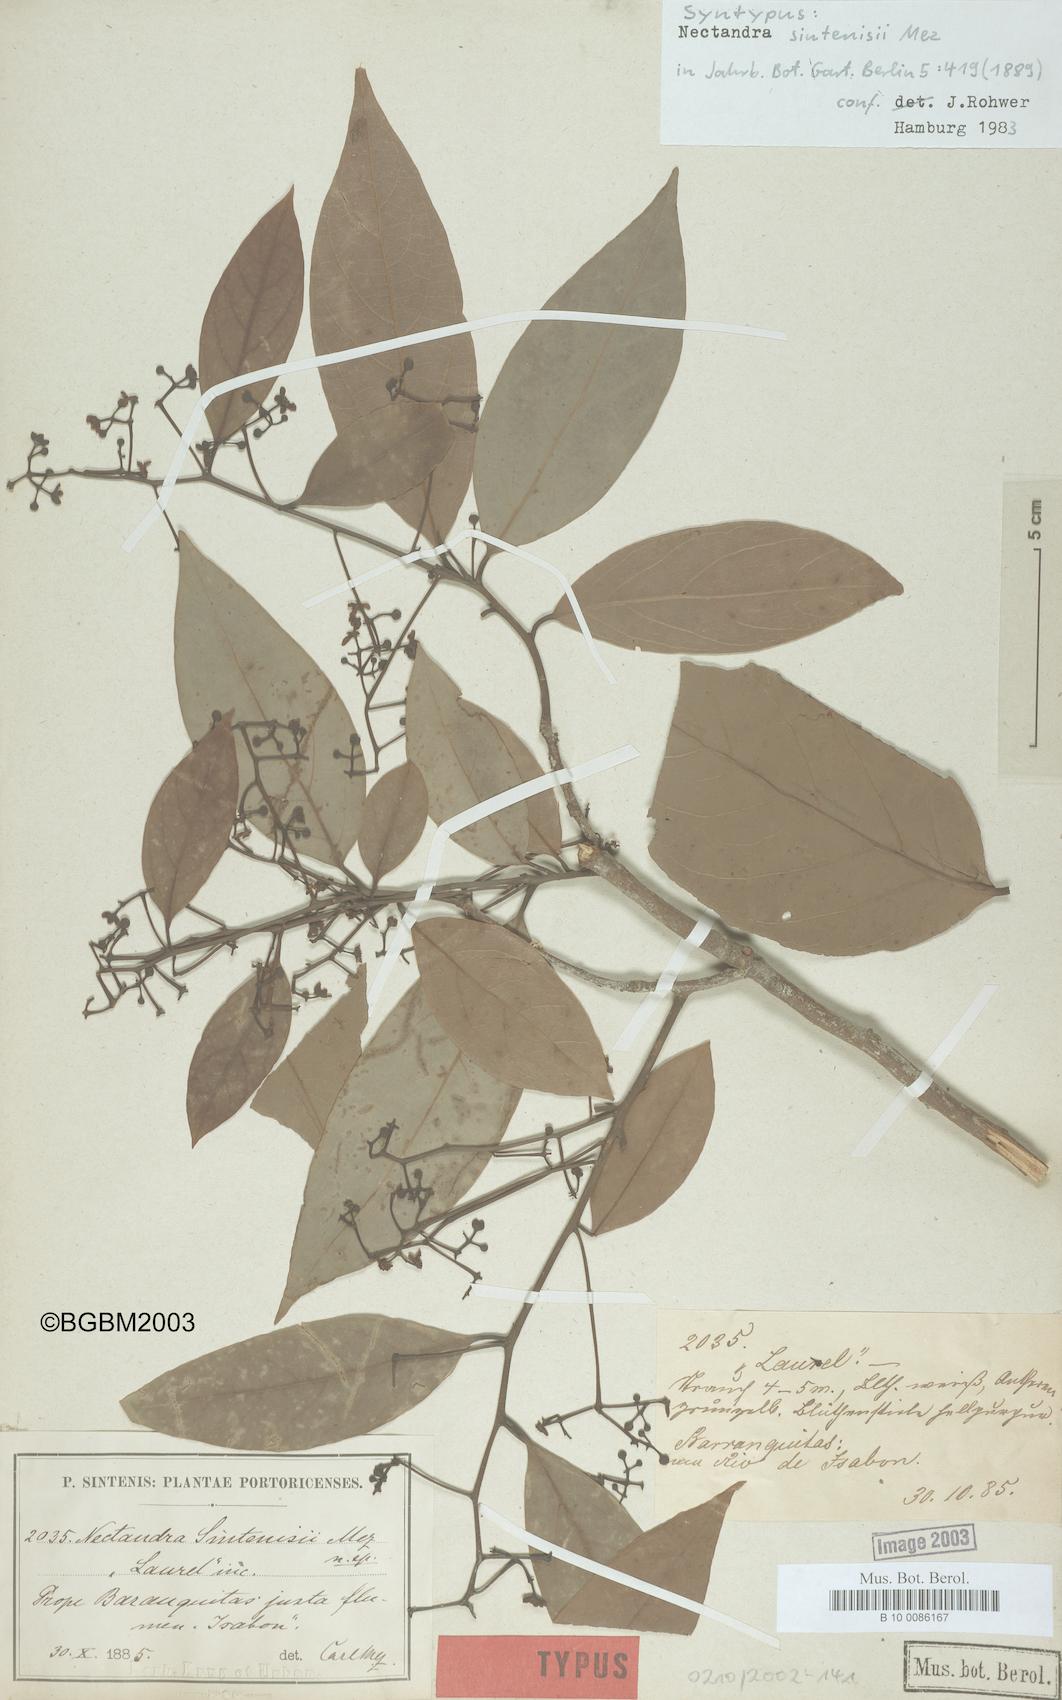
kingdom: Plantae
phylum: Tracheophyta
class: Magnoliopsida
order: Laurales
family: Lauraceae
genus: Nectandra
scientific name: Nectandra turbacensis
